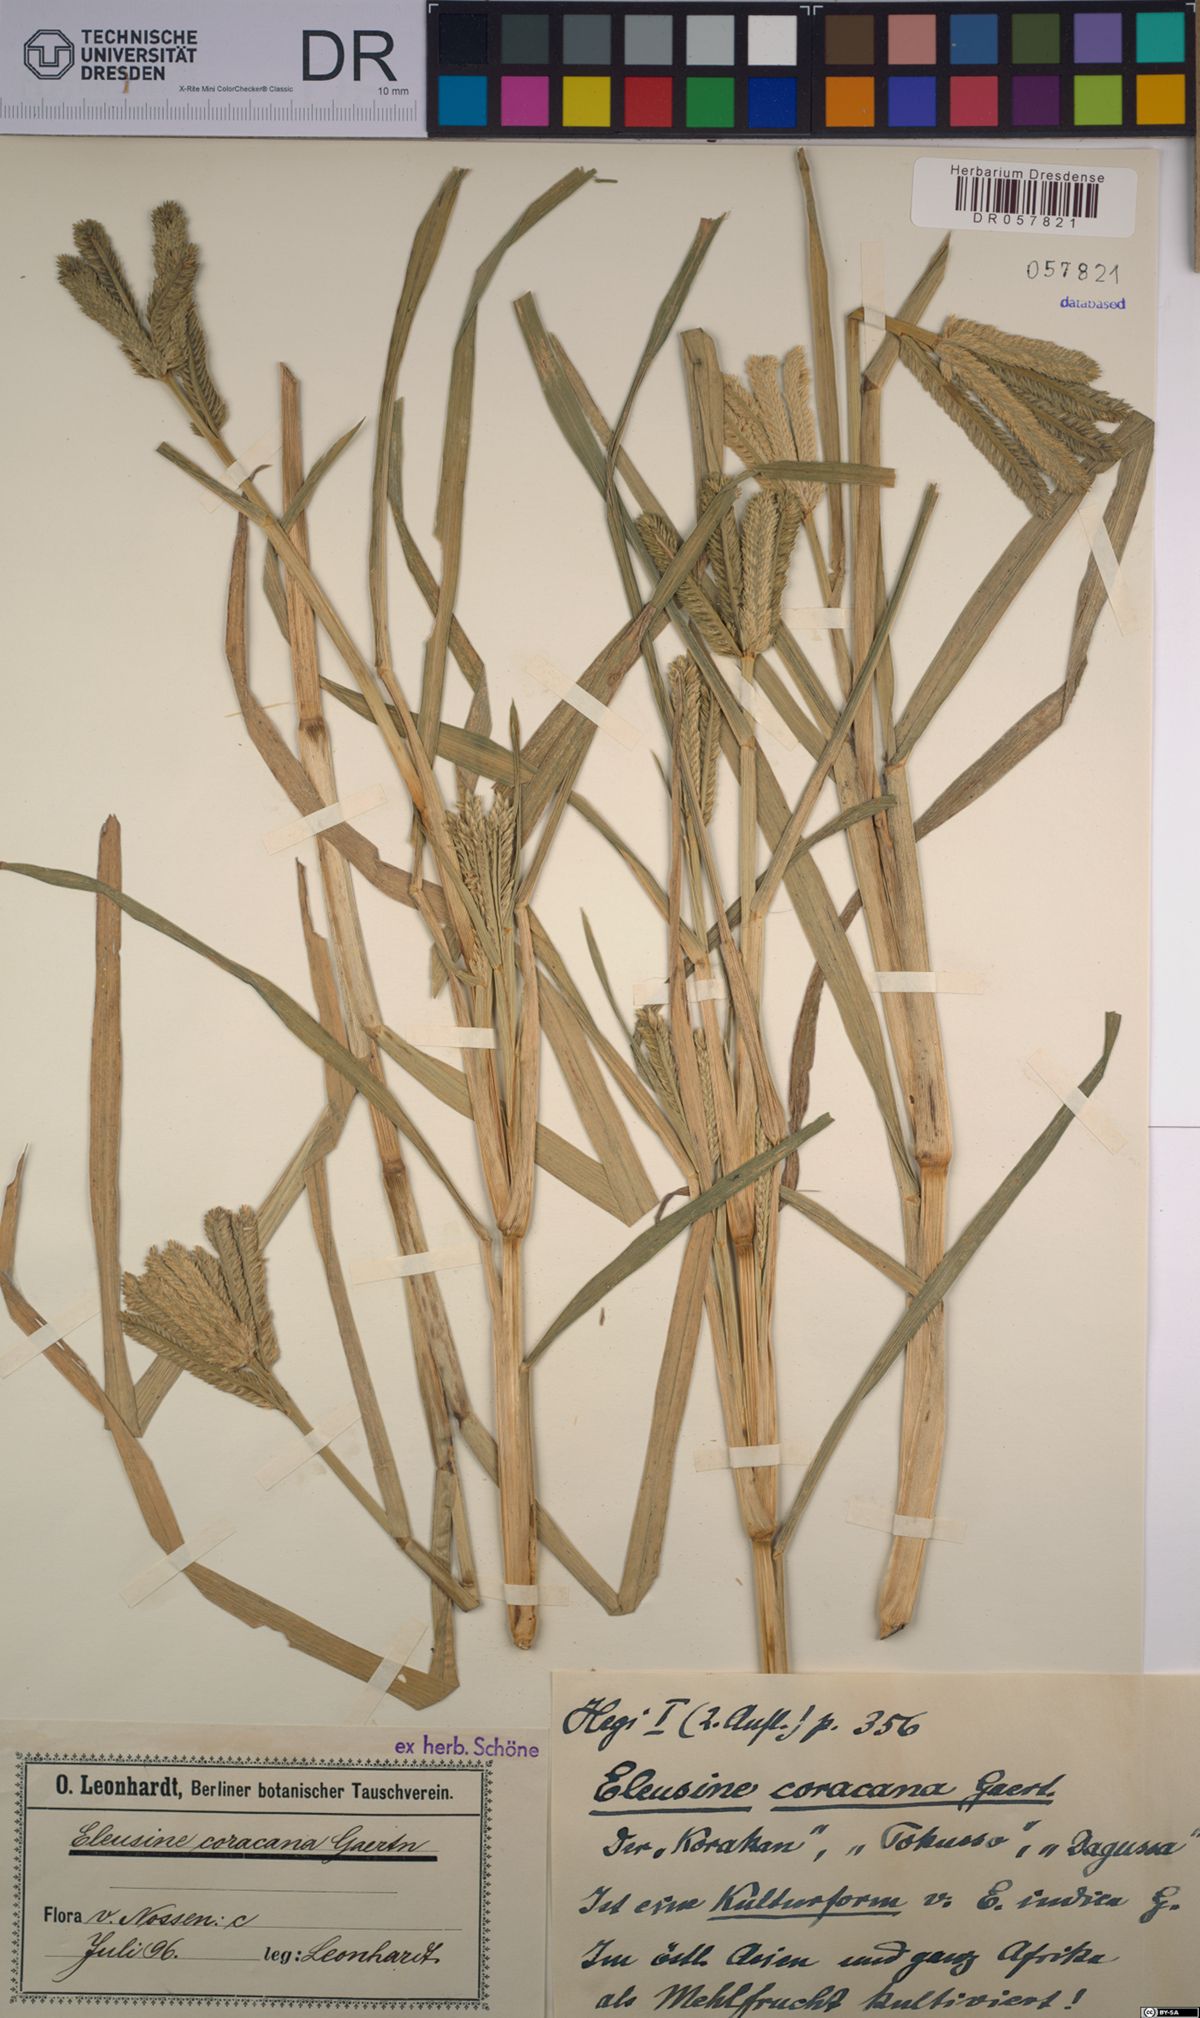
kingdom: Plantae
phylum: Tracheophyta
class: Liliopsida
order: Poales
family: Poaceae
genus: Eleusine
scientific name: Eleusine coracana
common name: Finger millet
